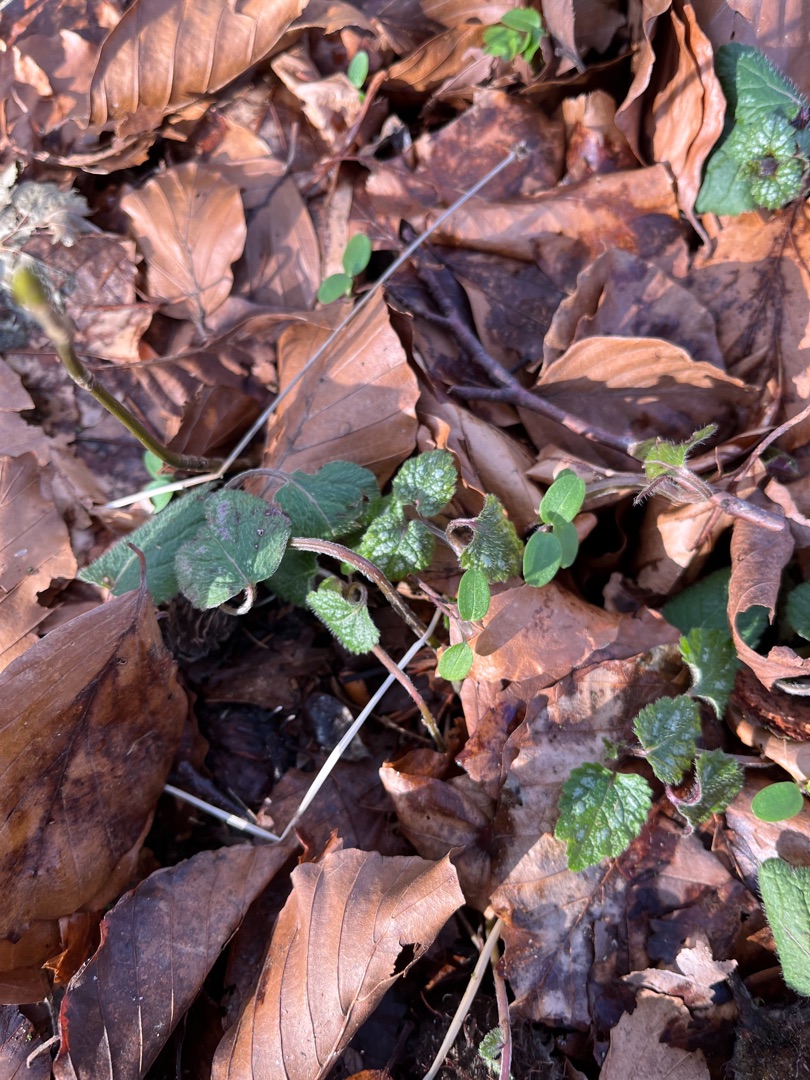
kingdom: Plantae
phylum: Tracheophyta
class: Magnoliopsida
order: Lamiales
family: Lamiaceae
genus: Lamium
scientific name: Lamium galeobdolon
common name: Guldnælde
